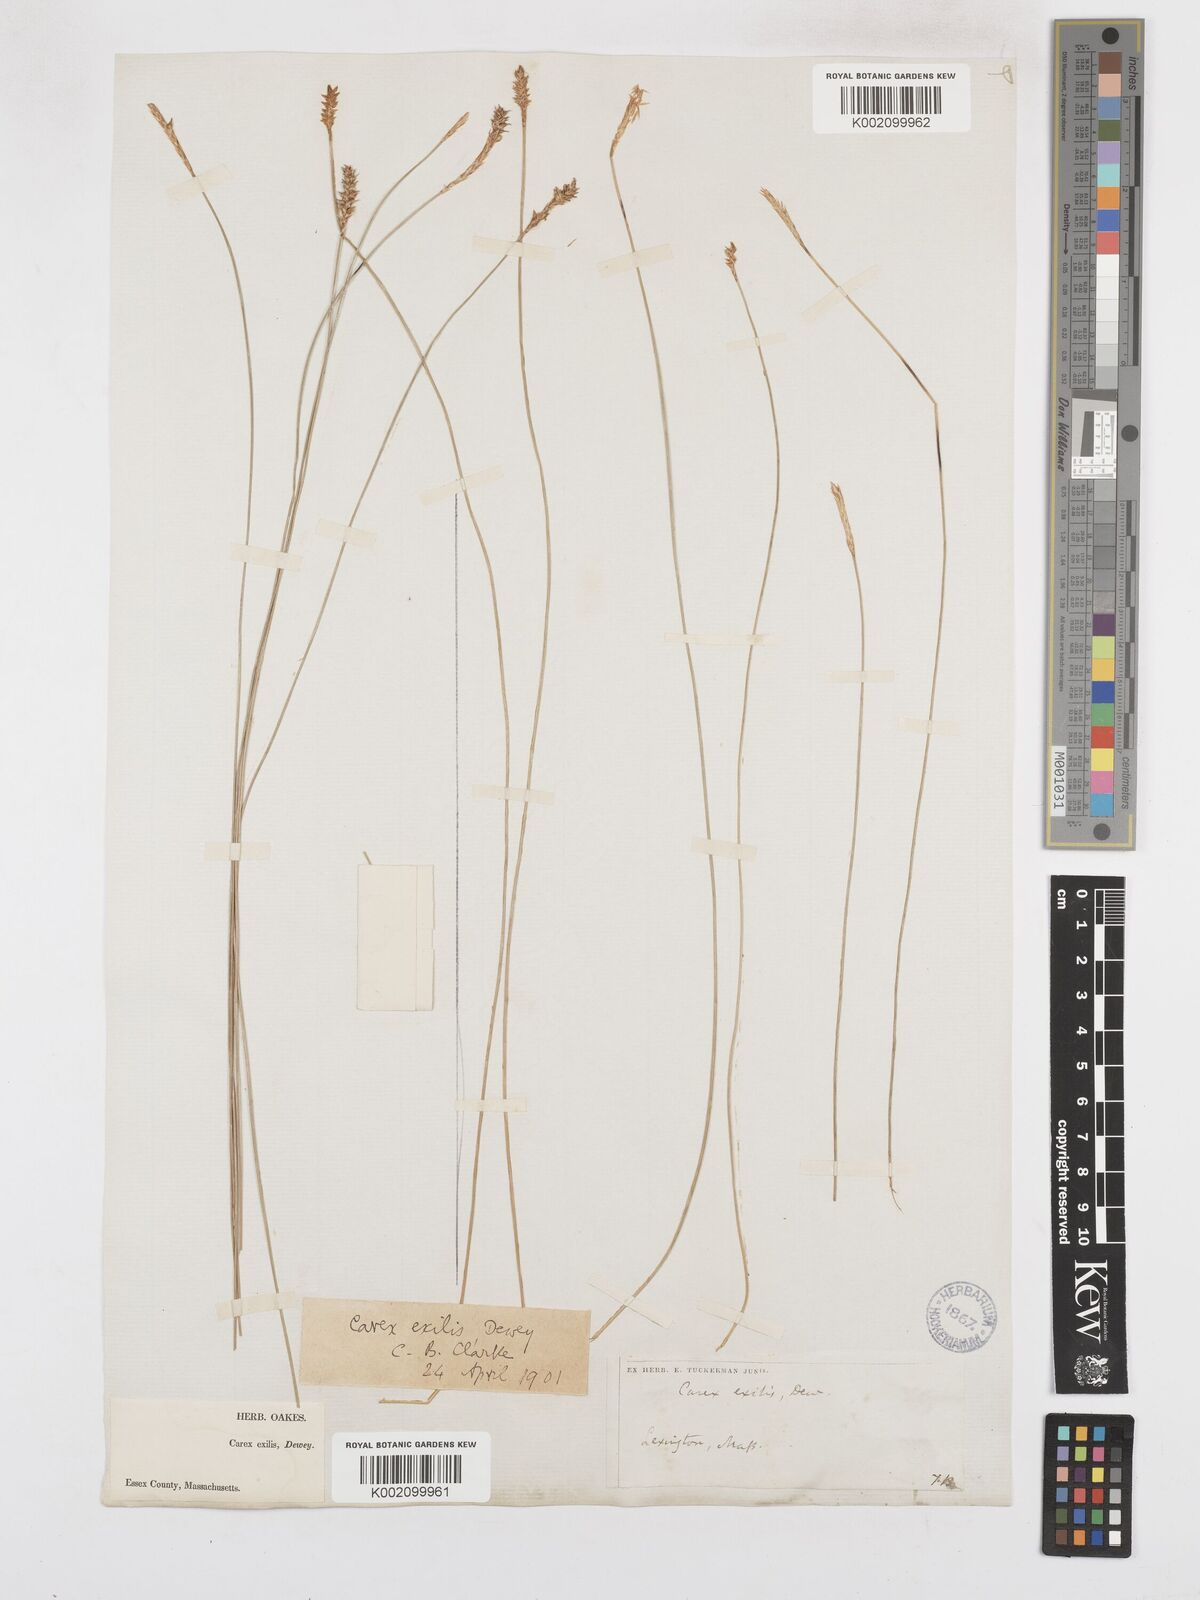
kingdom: Plantae
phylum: Tracheophyta
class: Liliopsida
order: Poales
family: Cyperaceae
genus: Carex
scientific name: Carex exilis
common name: Coastal sedge
